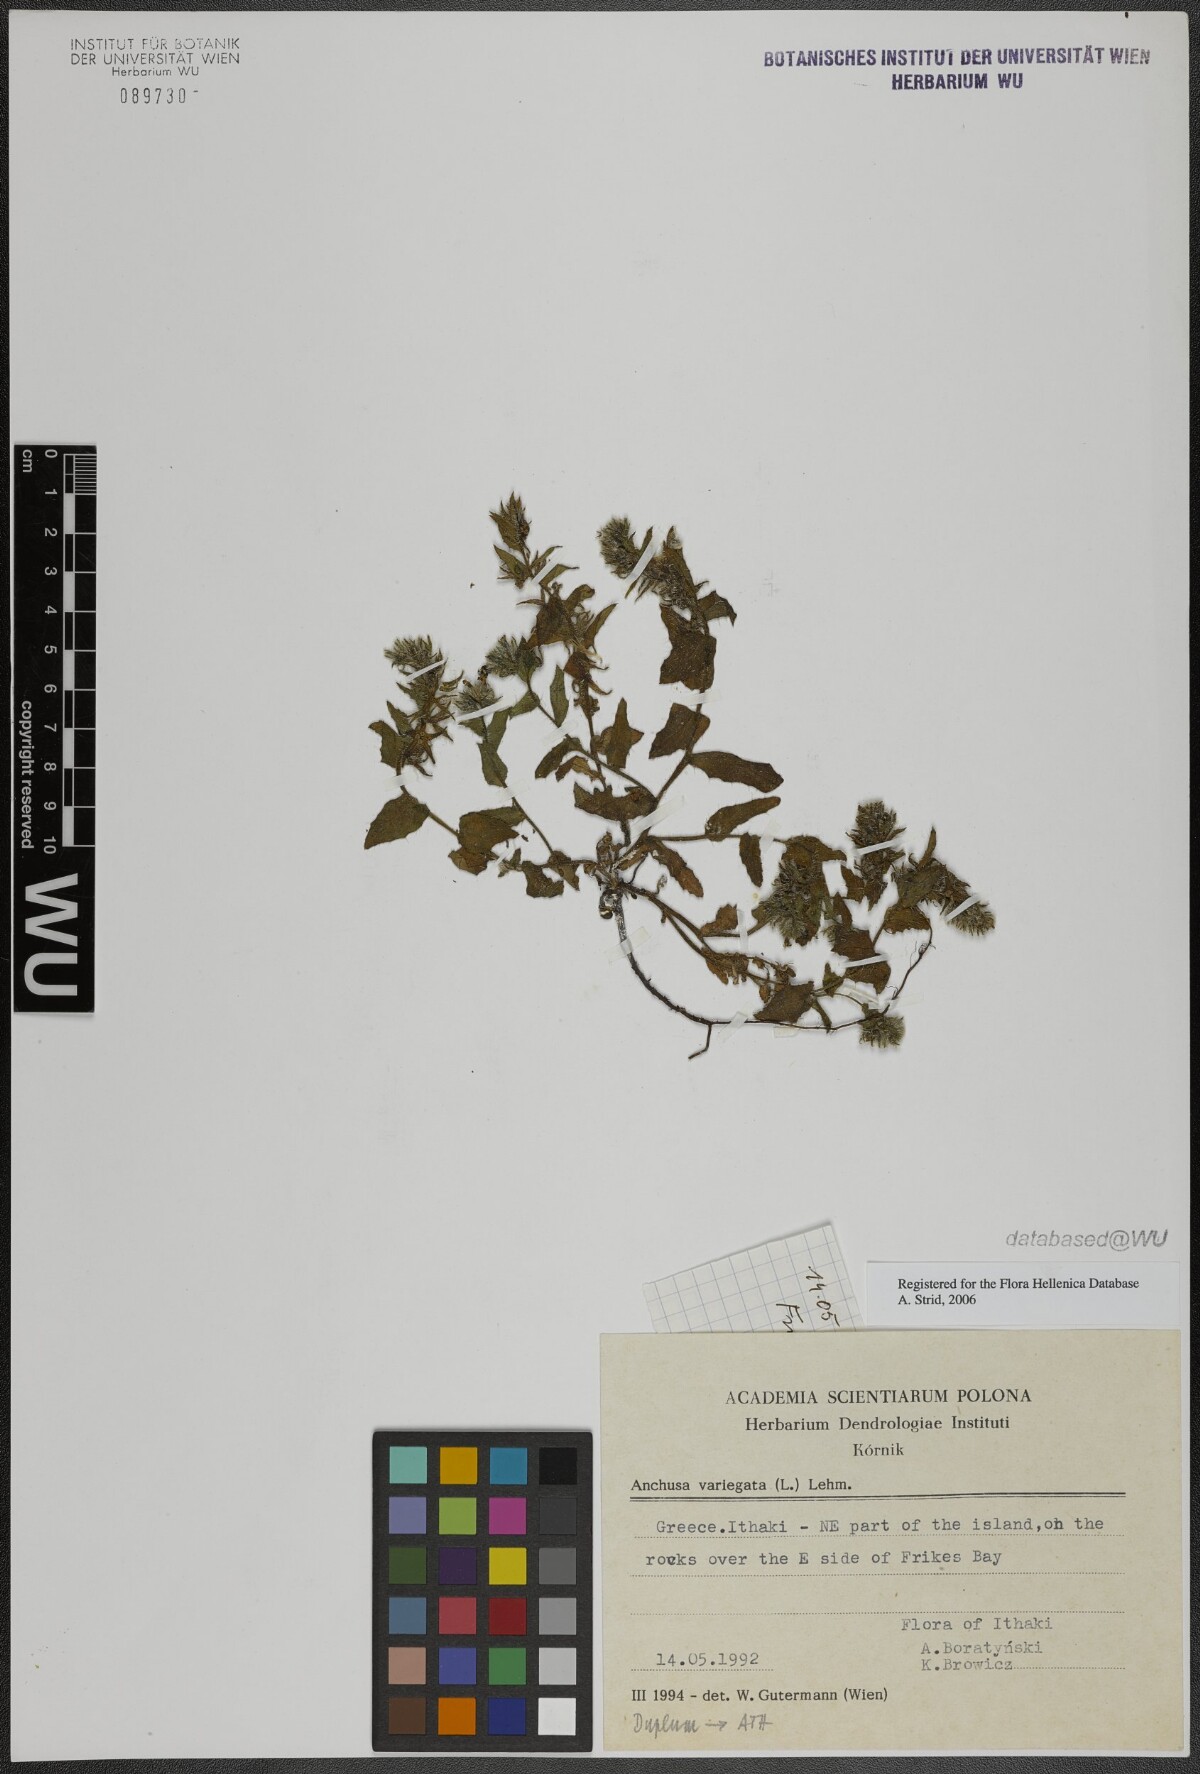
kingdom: Plantae
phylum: Tracheophyta
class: Magnoliopsida
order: Boraginales
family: Boraginaceae
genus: Anchusella
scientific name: Anchusella variegata
